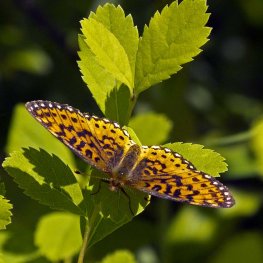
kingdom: Animalia
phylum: Arthropoda
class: Insecta
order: Lepidoptera
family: Nymphalidae
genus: Boloria
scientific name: Boloria selene
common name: Silver-bordered Fritillary
